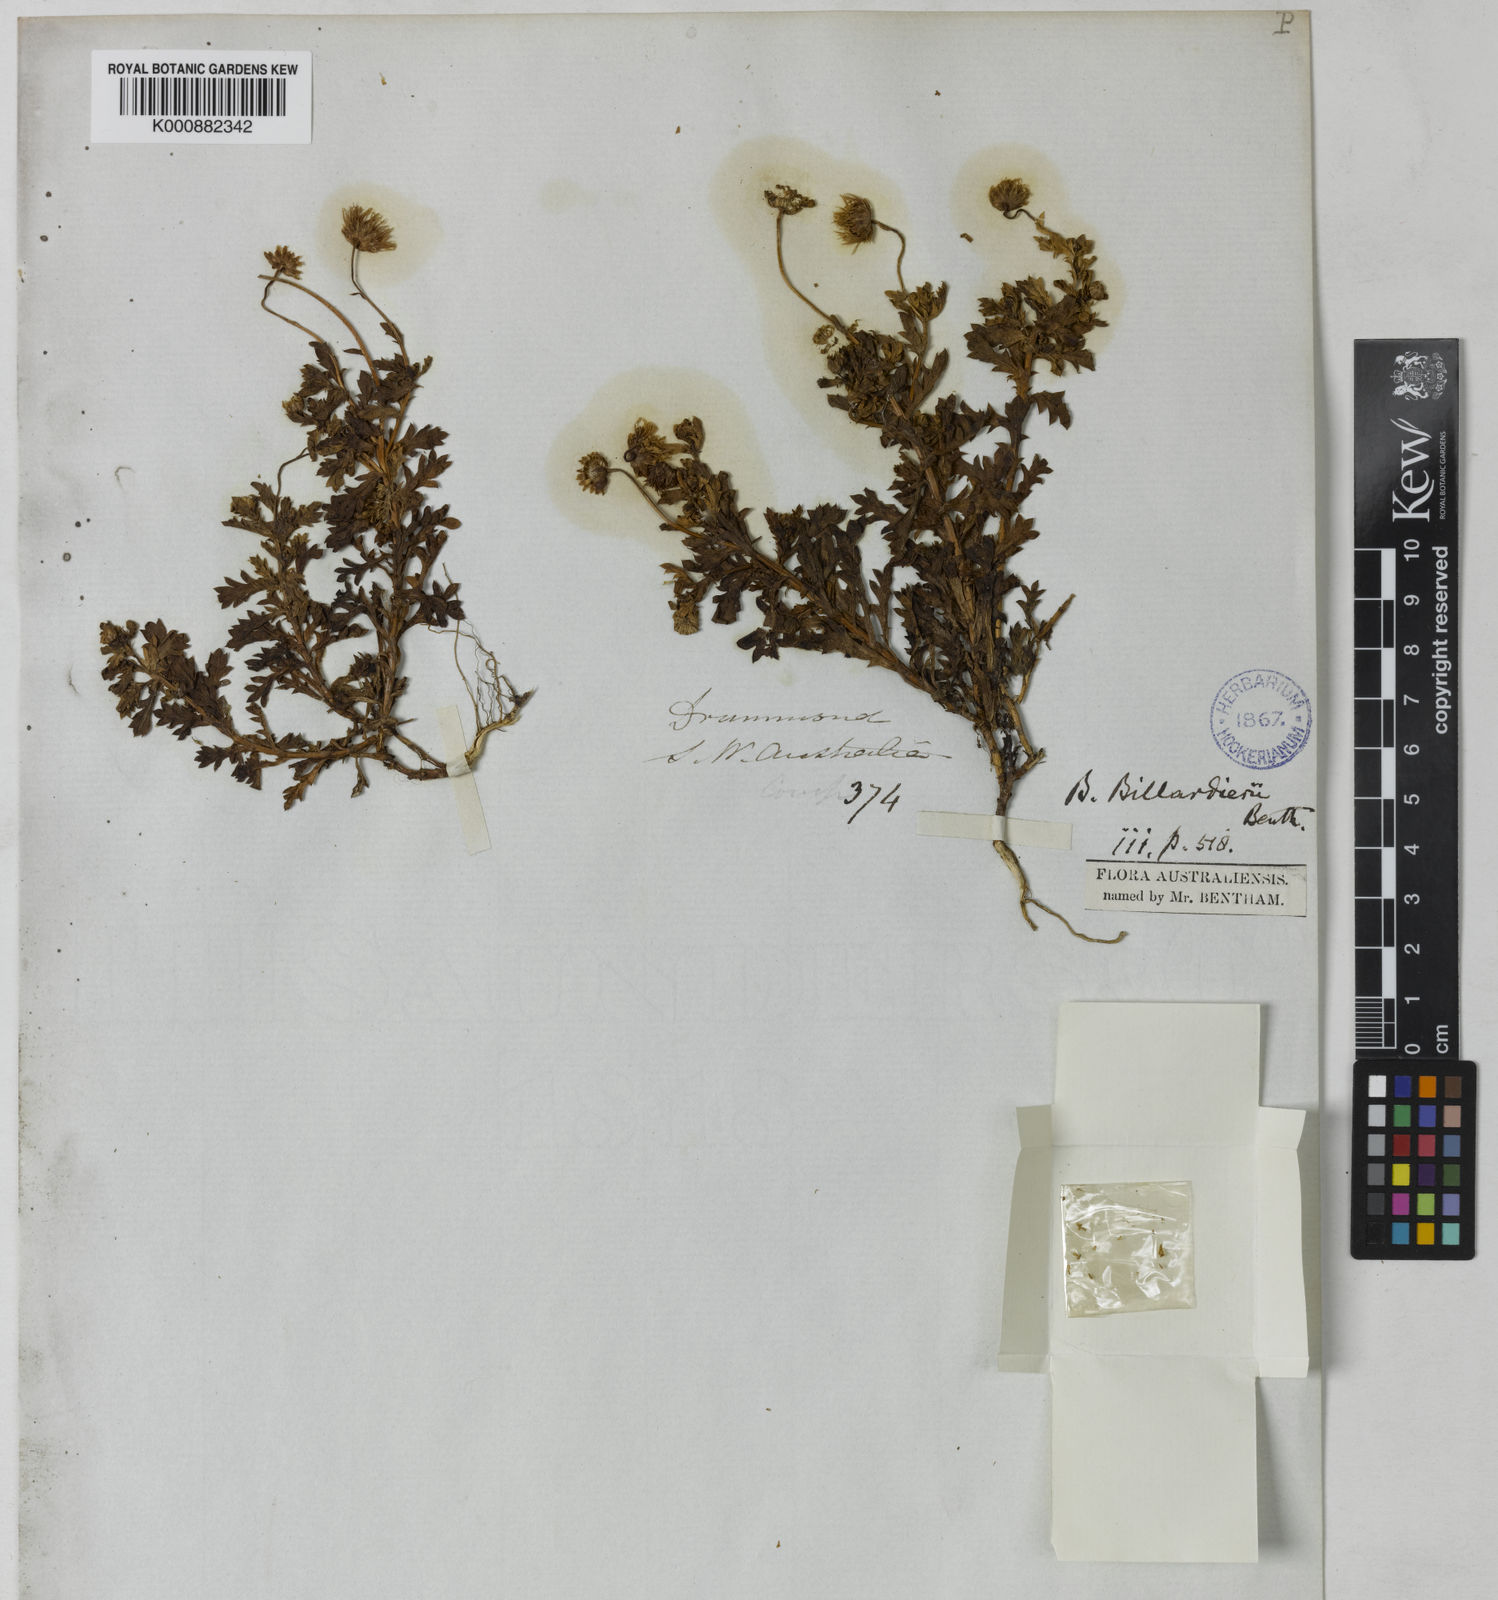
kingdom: Plantae
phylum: Tracheophyta
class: Magnoliopsida
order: Asterales
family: Asteraceae
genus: Brachyscome
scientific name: Brachyscome ciliaris
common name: Variable daisy
